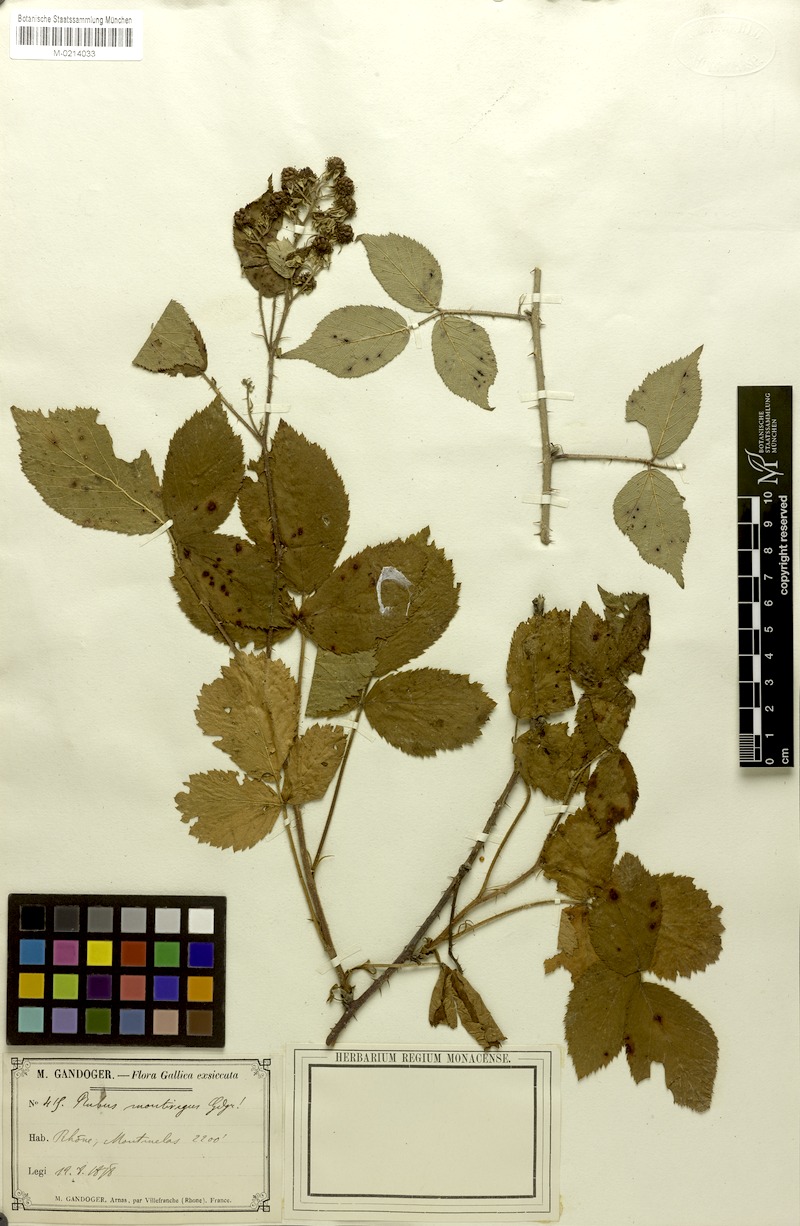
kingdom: Plantae
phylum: Tracheophyta
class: Magnoliopsida
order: Rosales
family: Rosaceae
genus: Rubus
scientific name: Rubus
